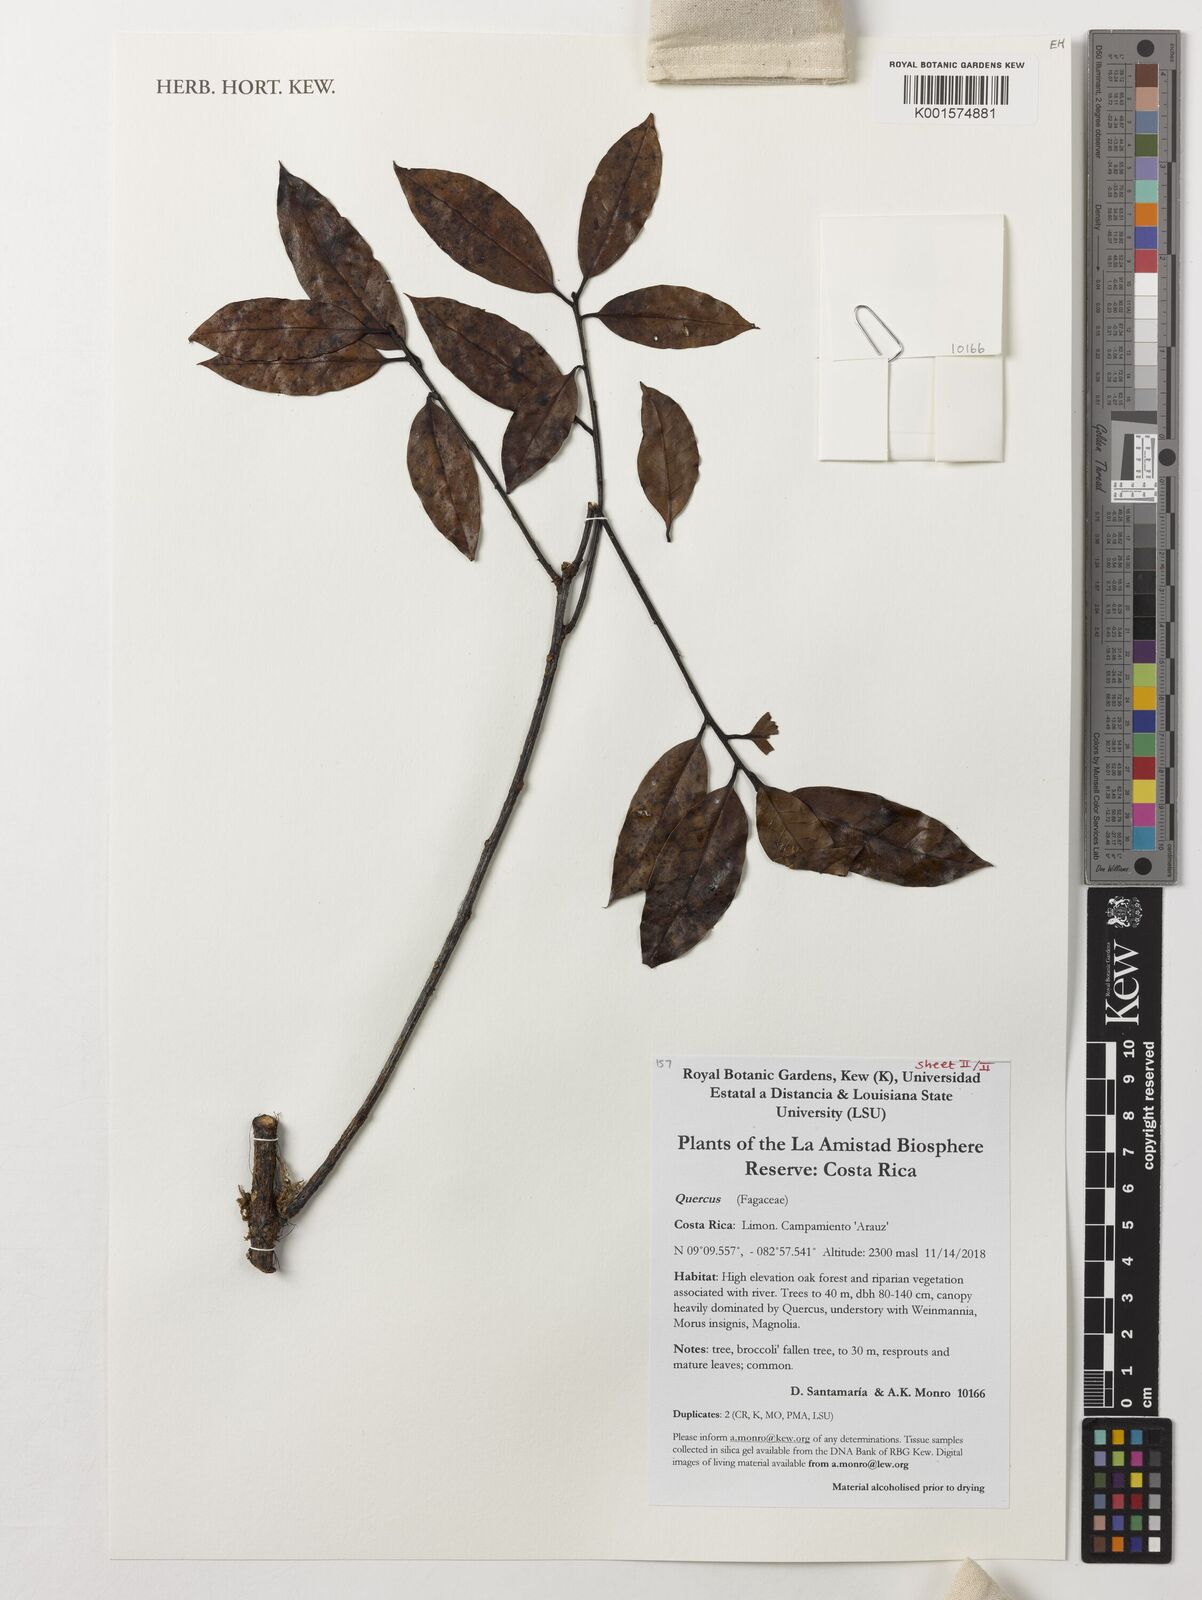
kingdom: Plantae
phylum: Tracheophyta
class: Magnoliopsida
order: Fagales
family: Fagaceae
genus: Quercus
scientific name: Quercus
